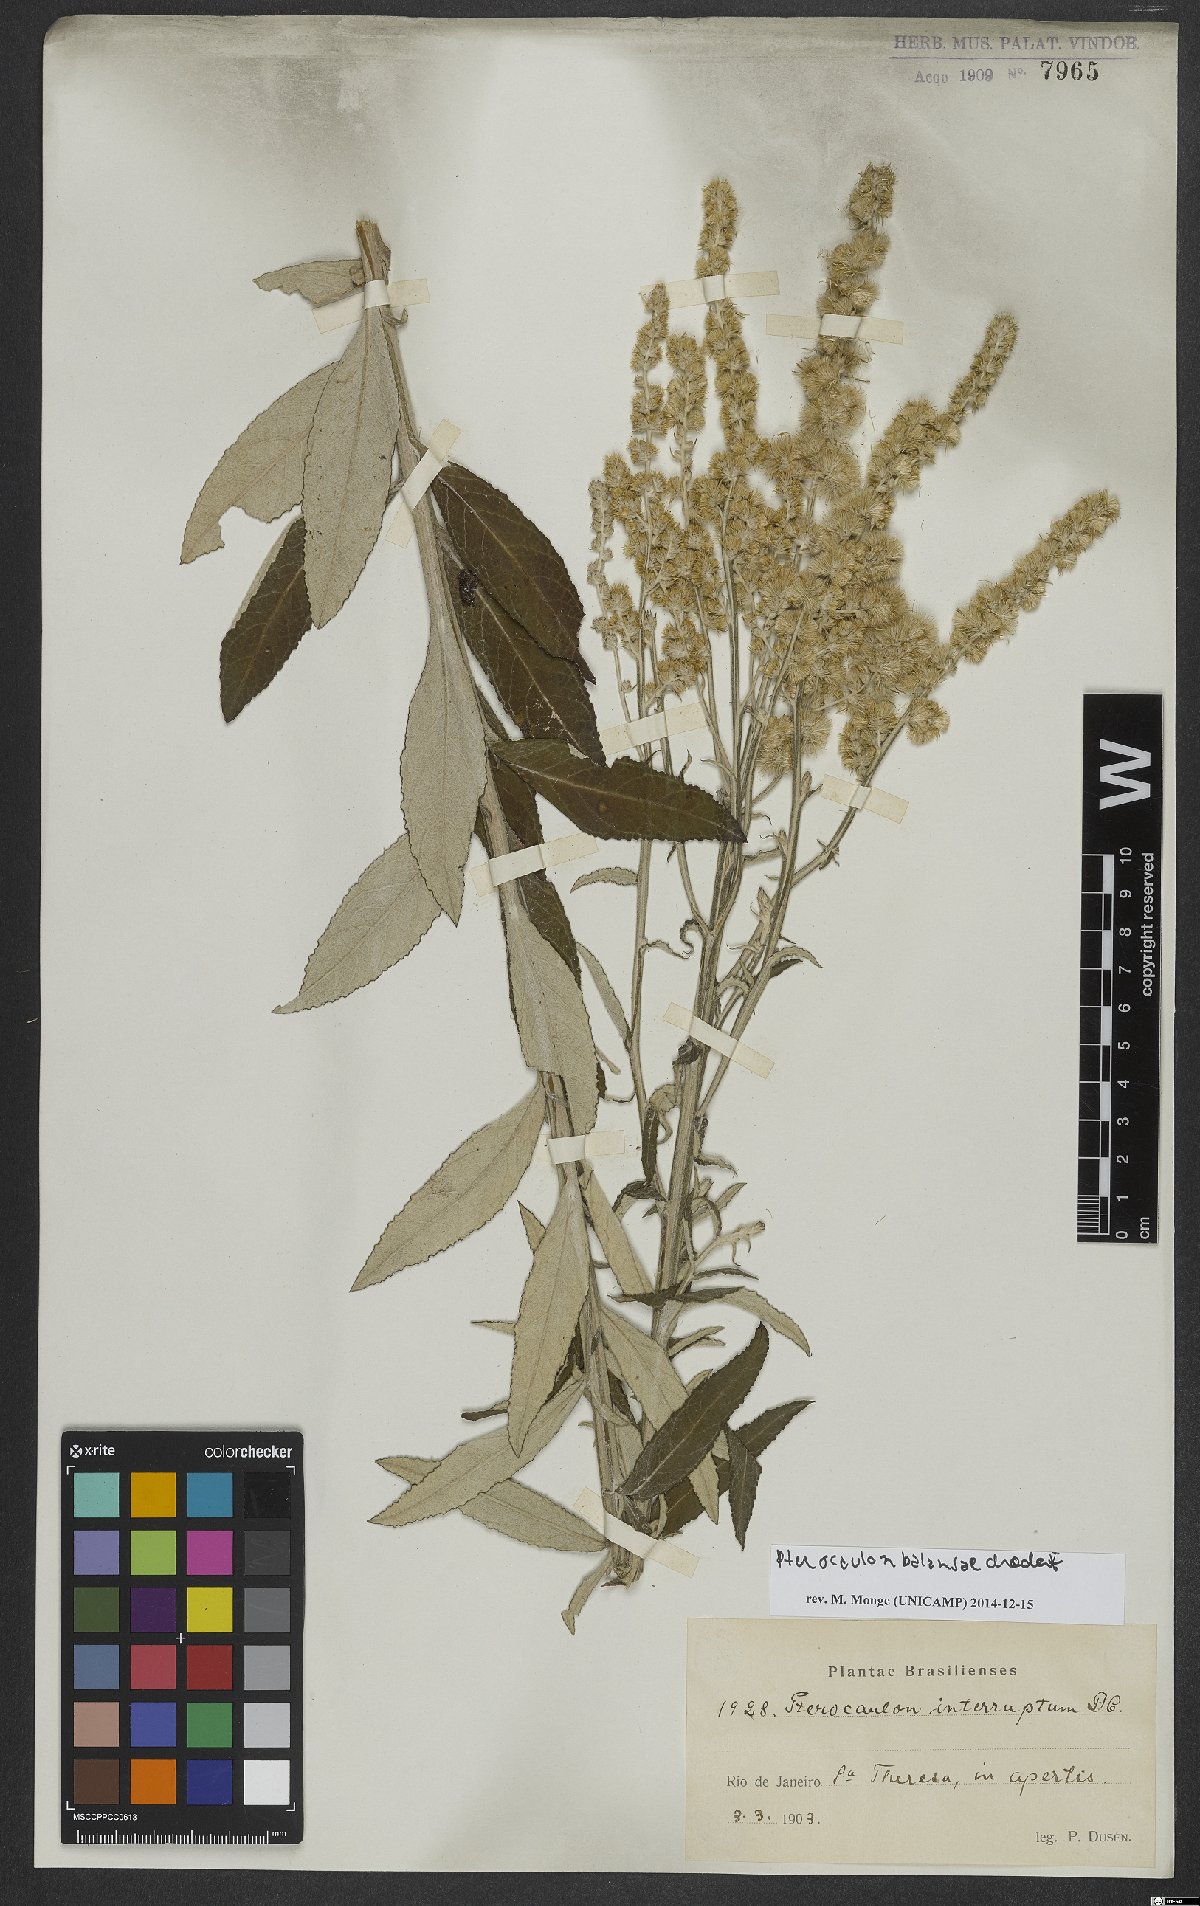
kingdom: Plantae
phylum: Tracheophyta
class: Magnoliopsida
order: Asterales
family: Asteraceae
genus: Pterocaulon
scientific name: Pterocaulon balansae
